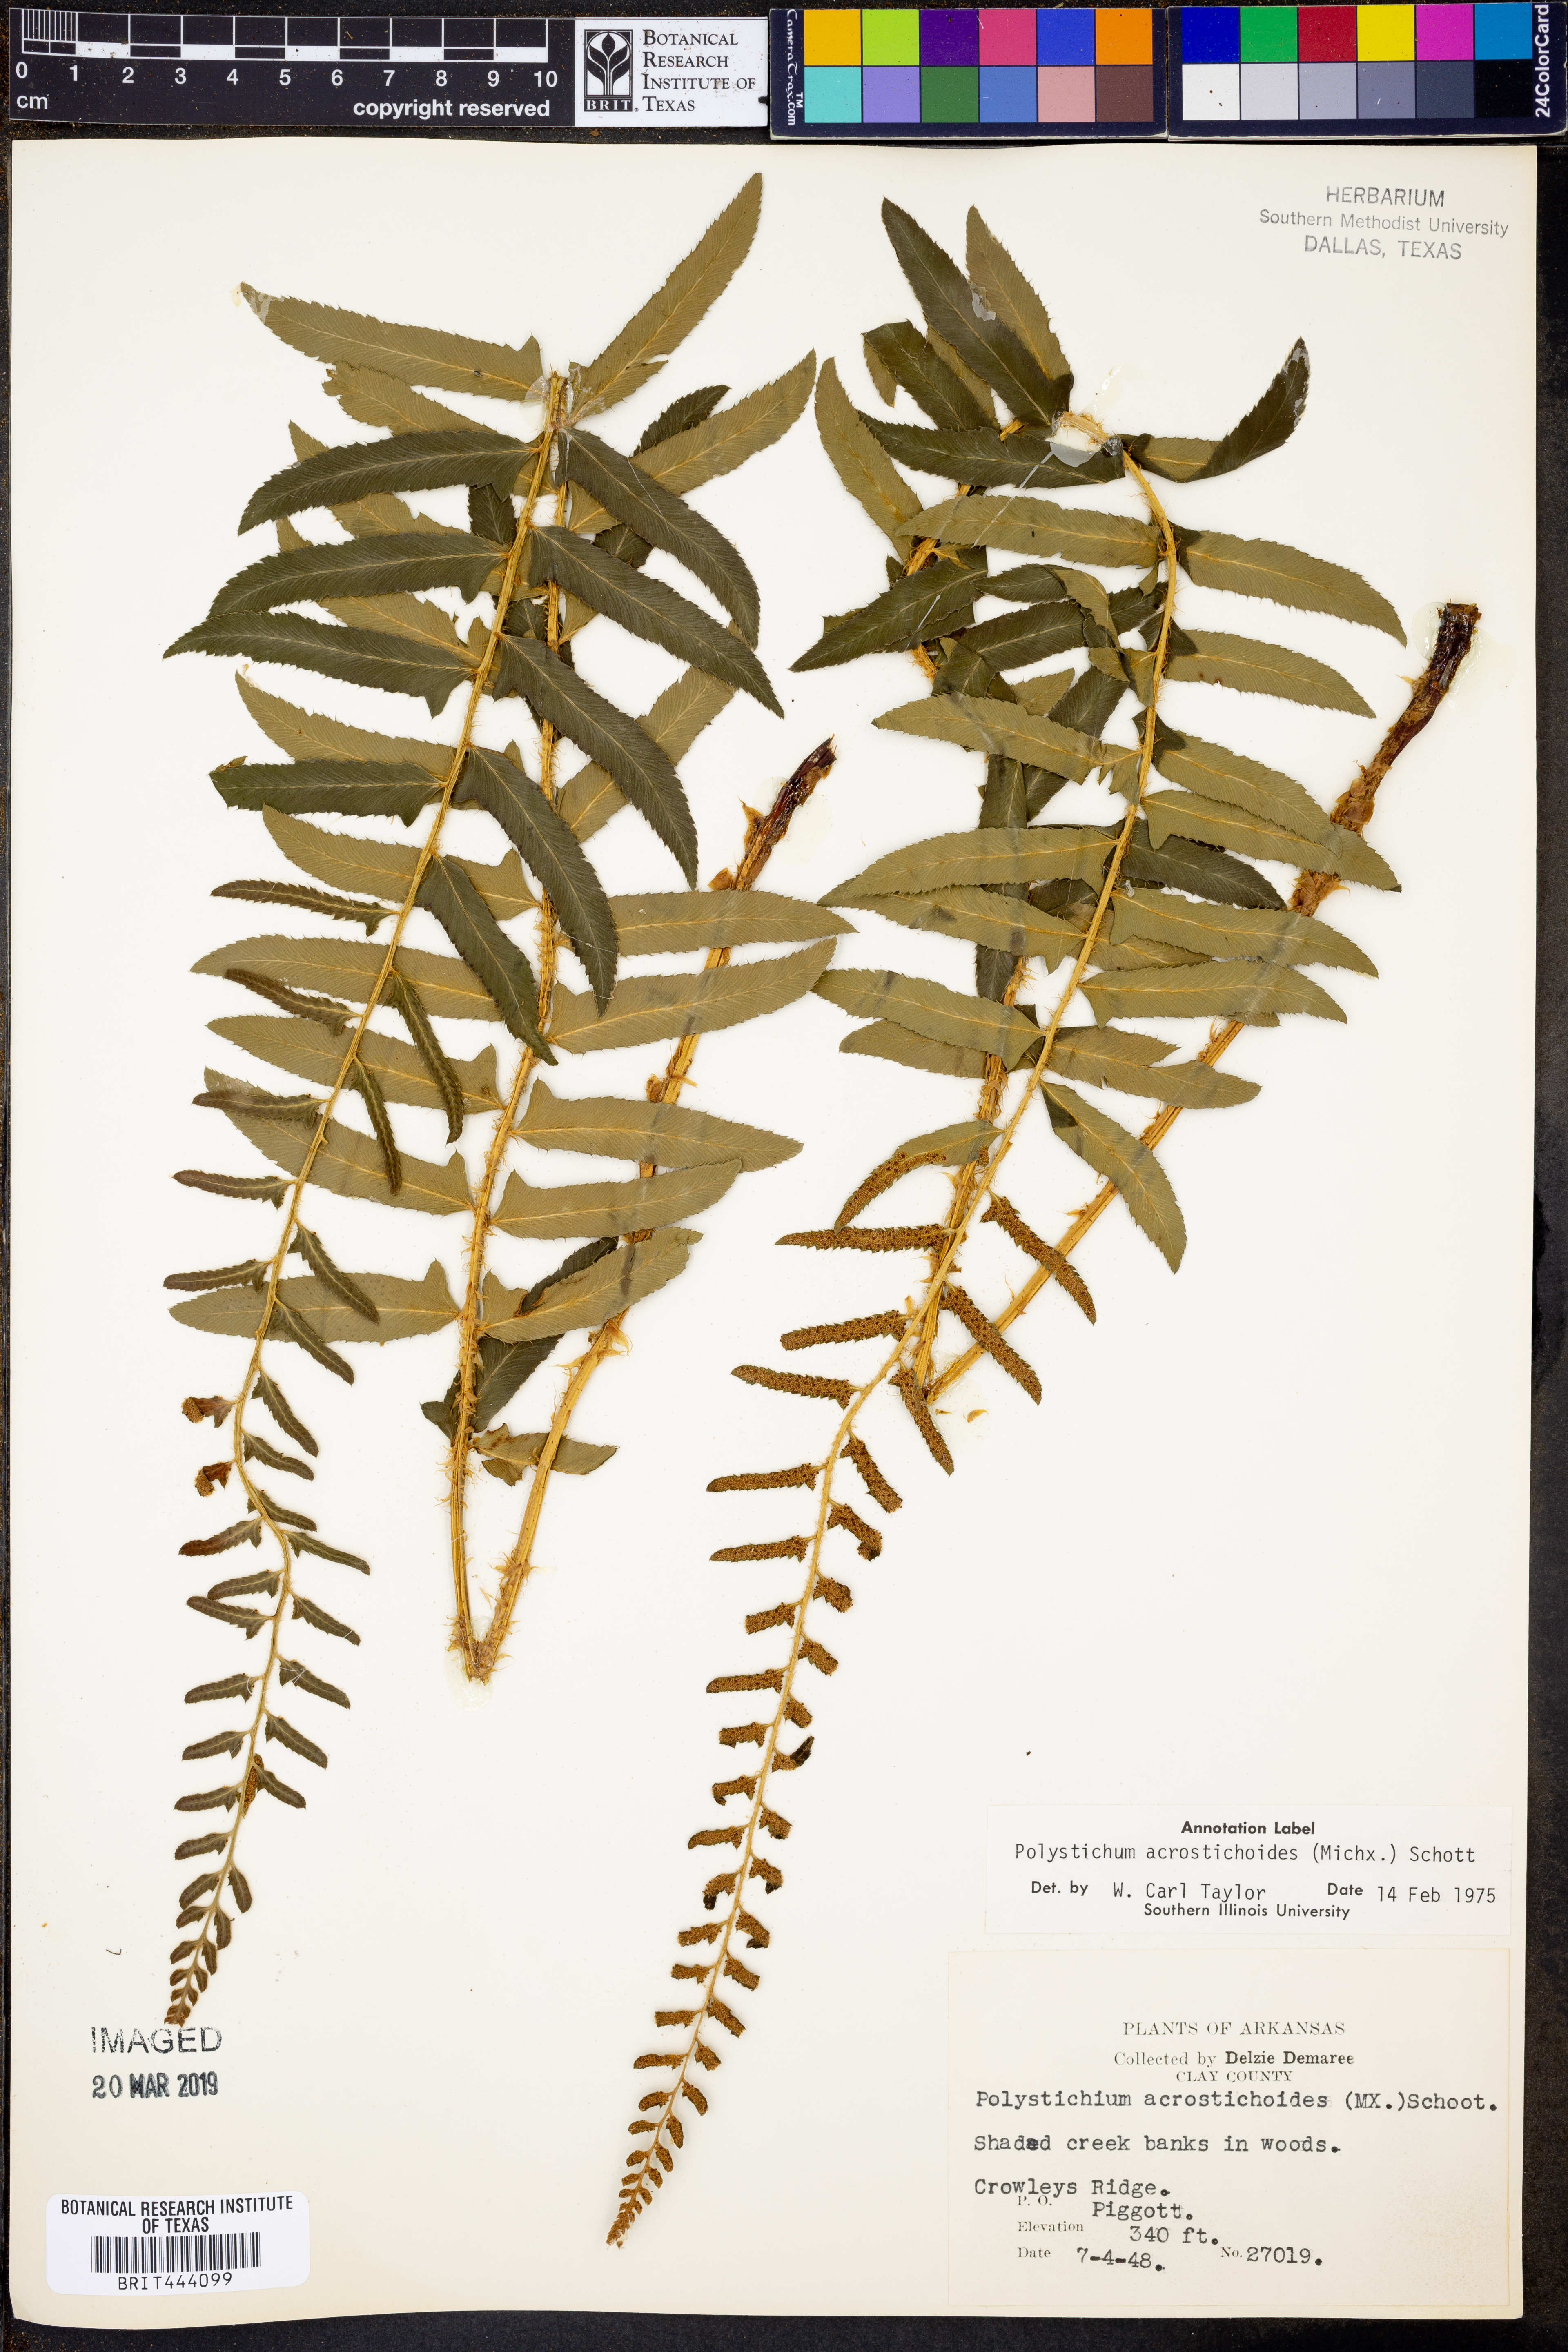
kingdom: Plantae
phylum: Tracheophyta
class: Polypodiopsida
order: Polypodiales
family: Dryopteridaceae
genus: Polystichum
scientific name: Polystichum acrostichoides
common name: Christmas fern
